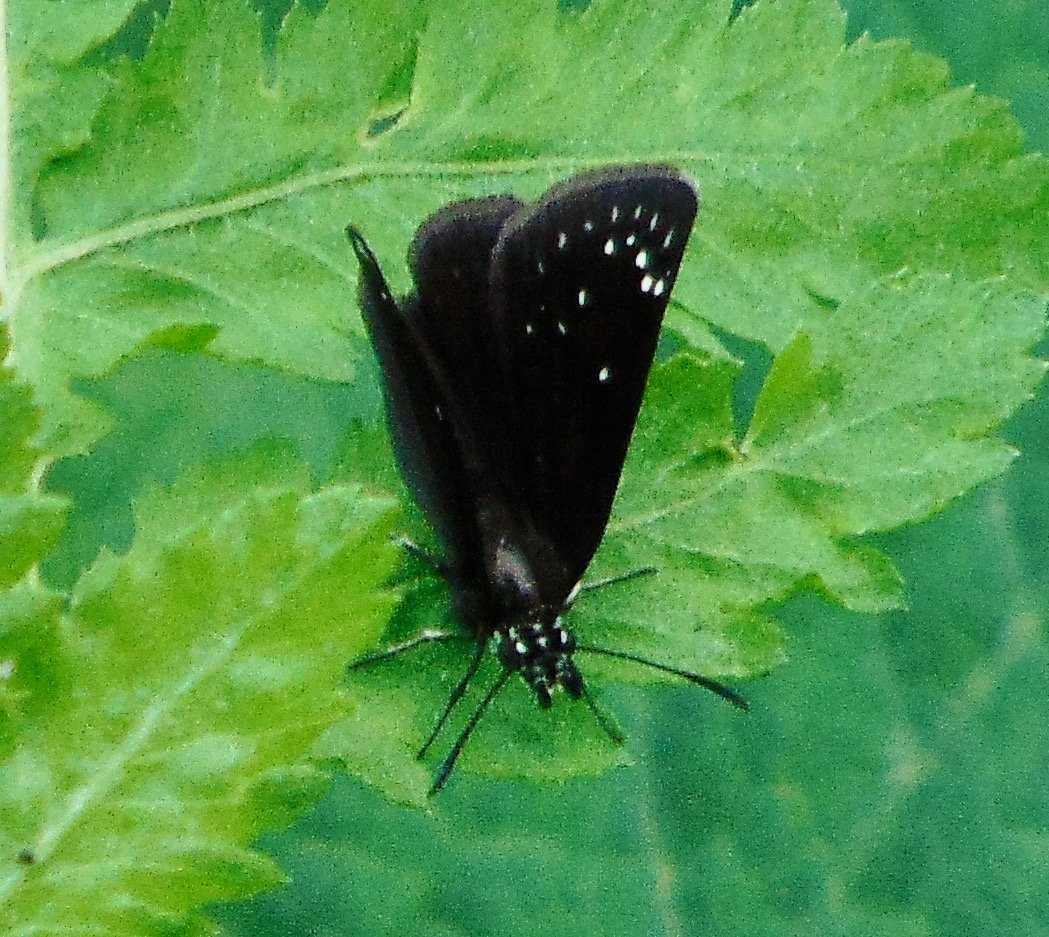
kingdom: Animalia
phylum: Arthropoda
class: Insecta
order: Lepidoptera
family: Hesperiidae
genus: Pholisora
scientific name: Pholisora catullus
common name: Common Sootywing
